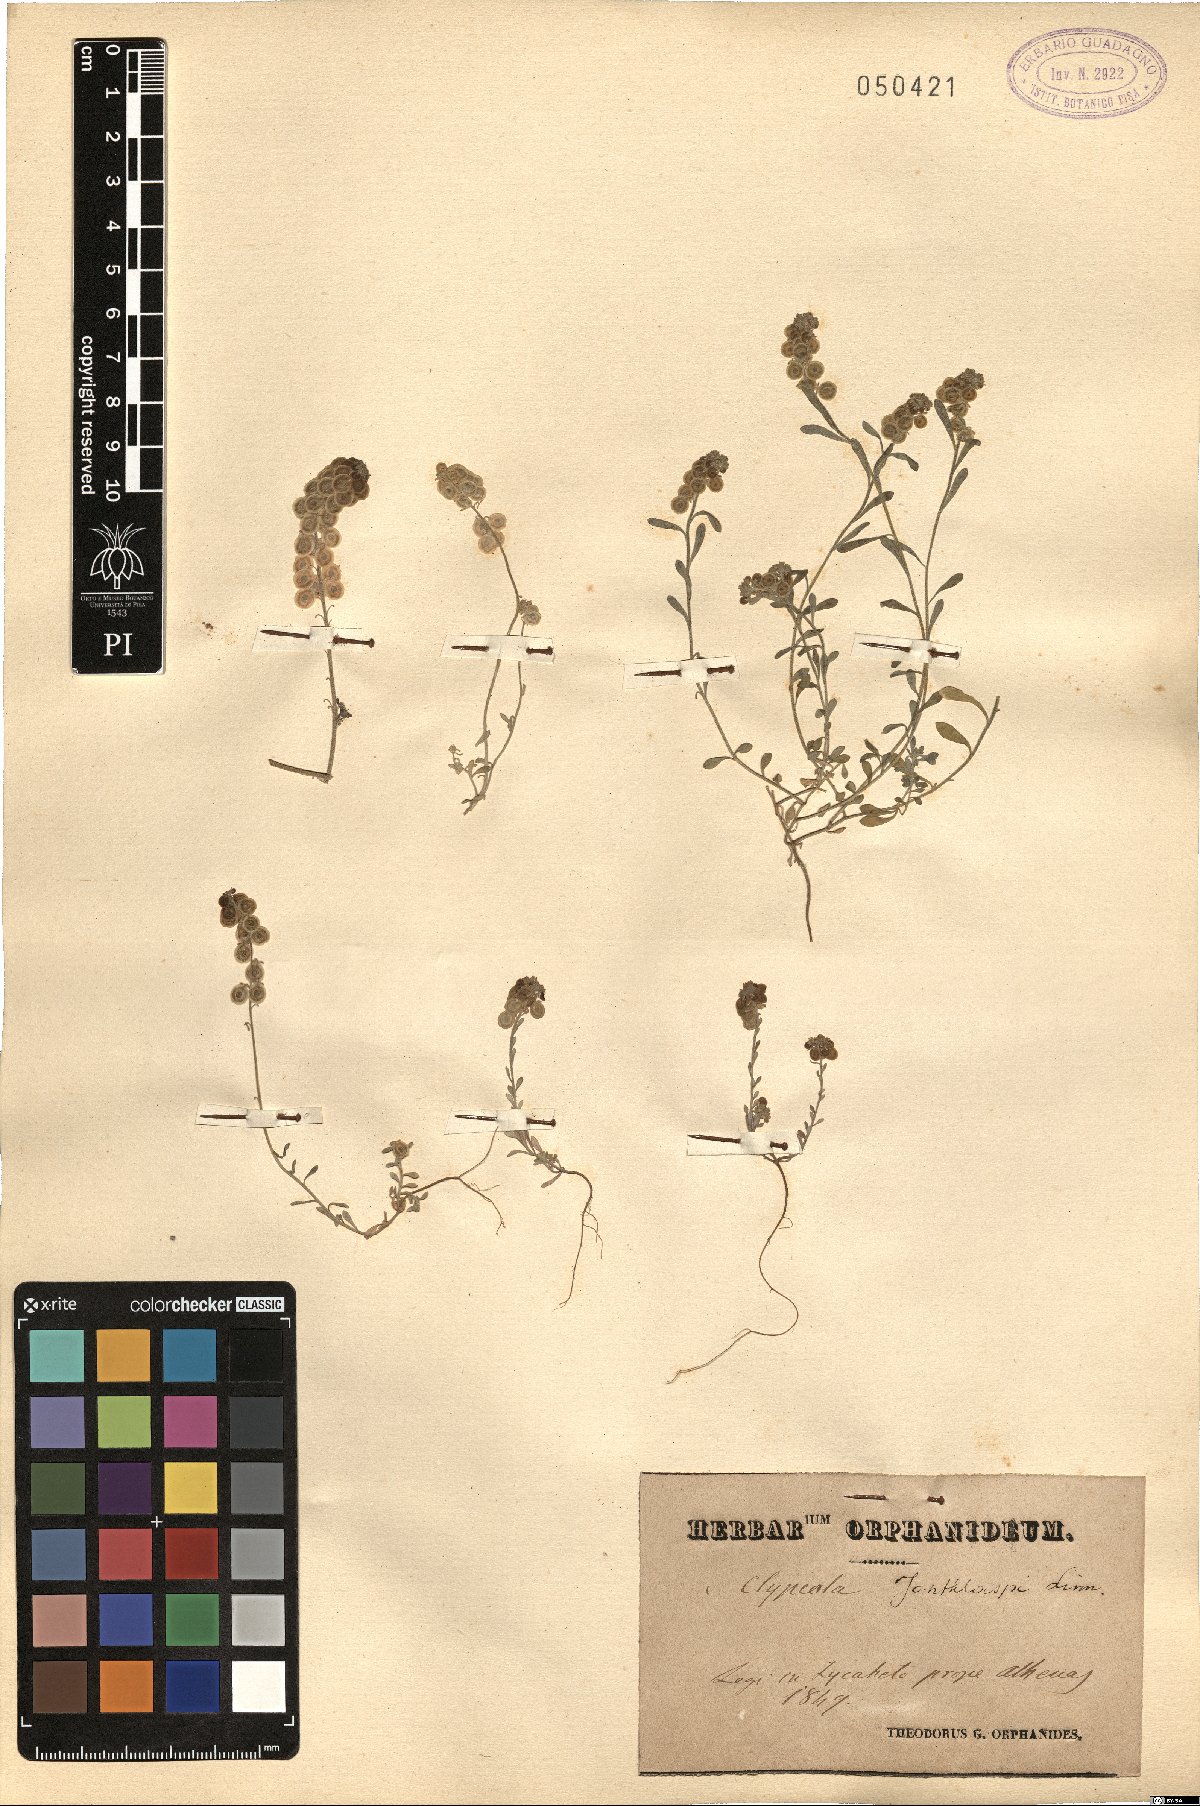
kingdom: Plantae
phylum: Tracheophyta
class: Magnoliopsida
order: Brassicales
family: Brassicaceae
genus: Clypeola
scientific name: Clypeola jonthlaspi
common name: Disk cress
